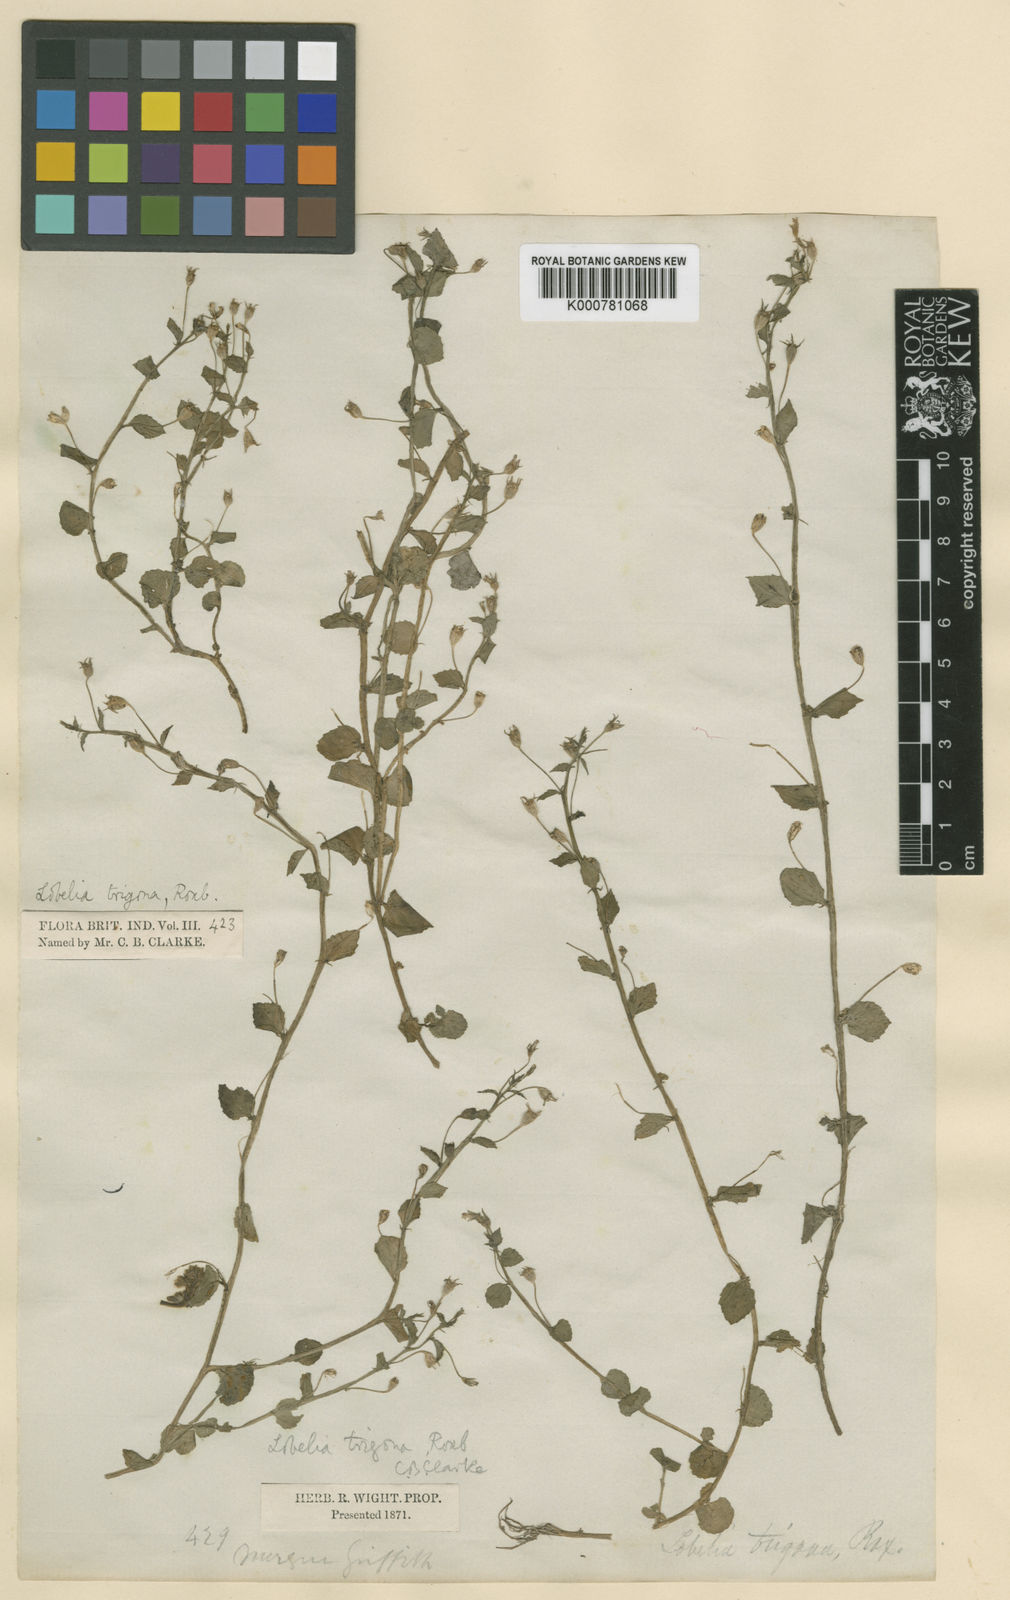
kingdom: Plantae
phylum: Tracheophyta
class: Magnoliopsida
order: Asterales
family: Campanulaceae
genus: Lobelia
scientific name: Lobelia alsinoides
